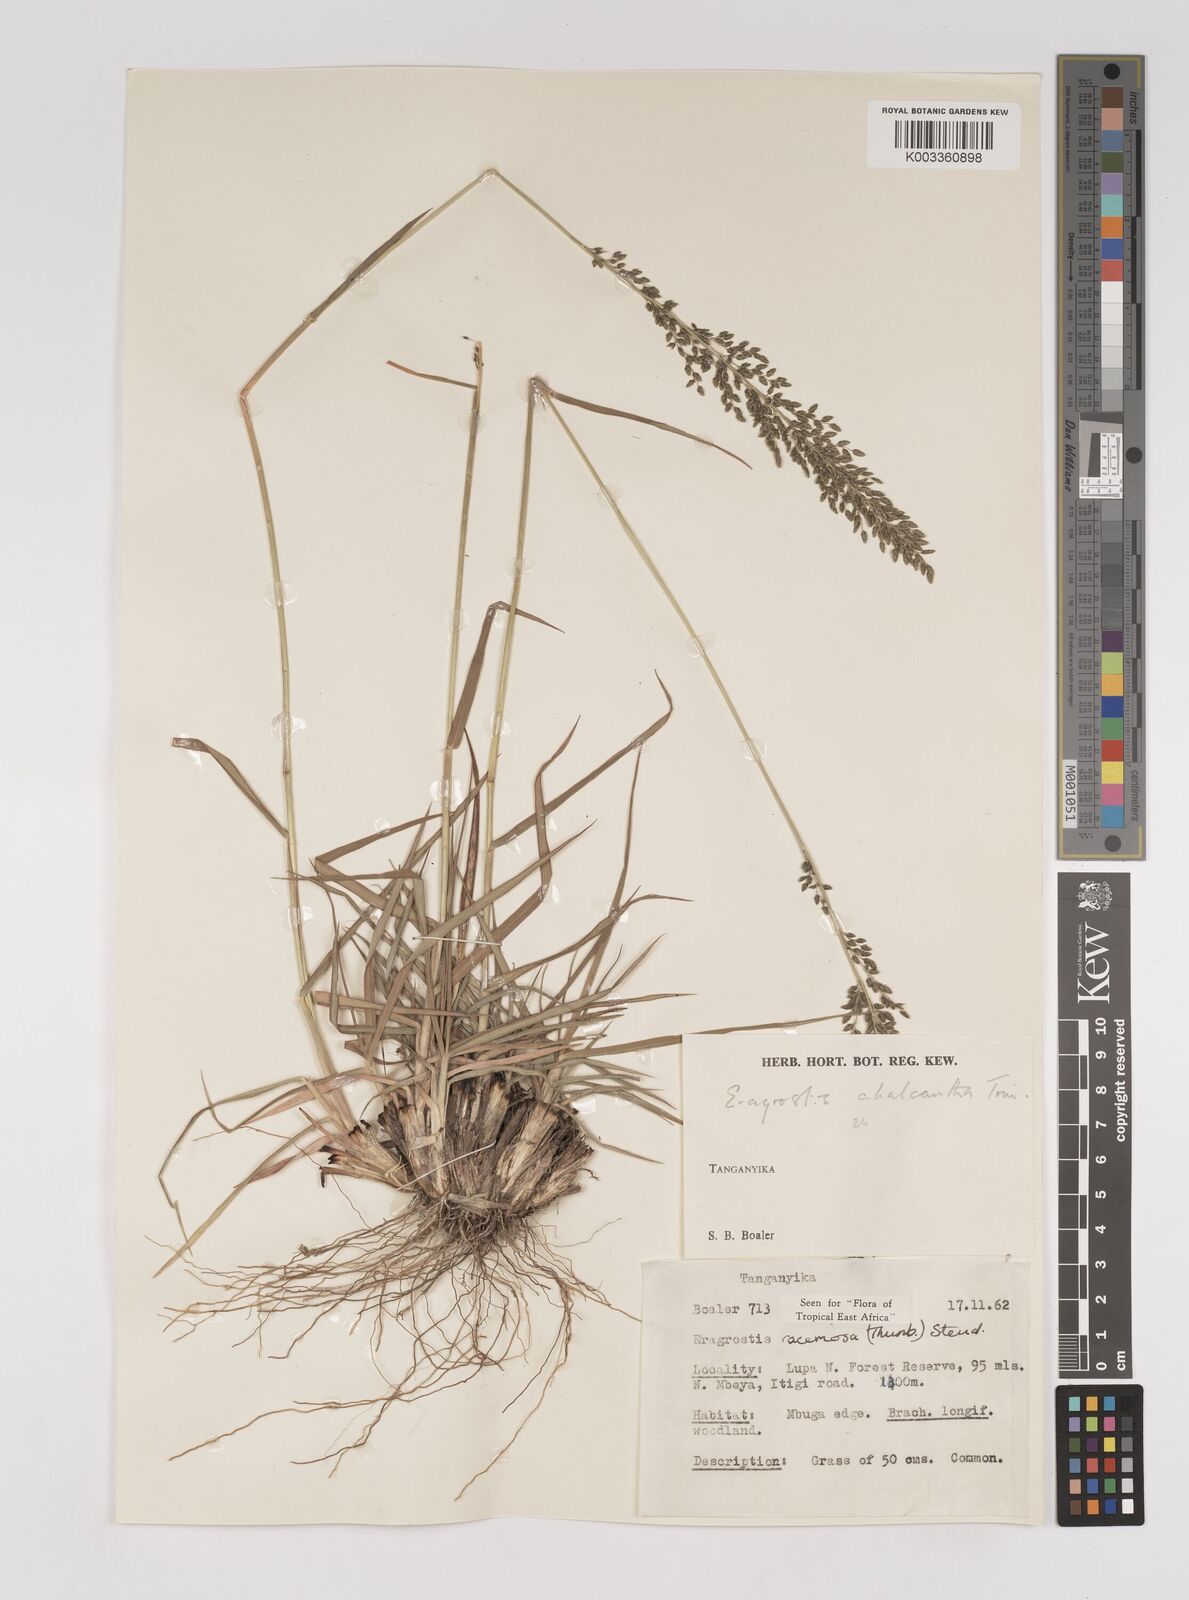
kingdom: Plantae
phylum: Tracheophyta
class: Liliopsida
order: Poales
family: Poaceae
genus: Eragrostis
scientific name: Eragrostis racemosa
